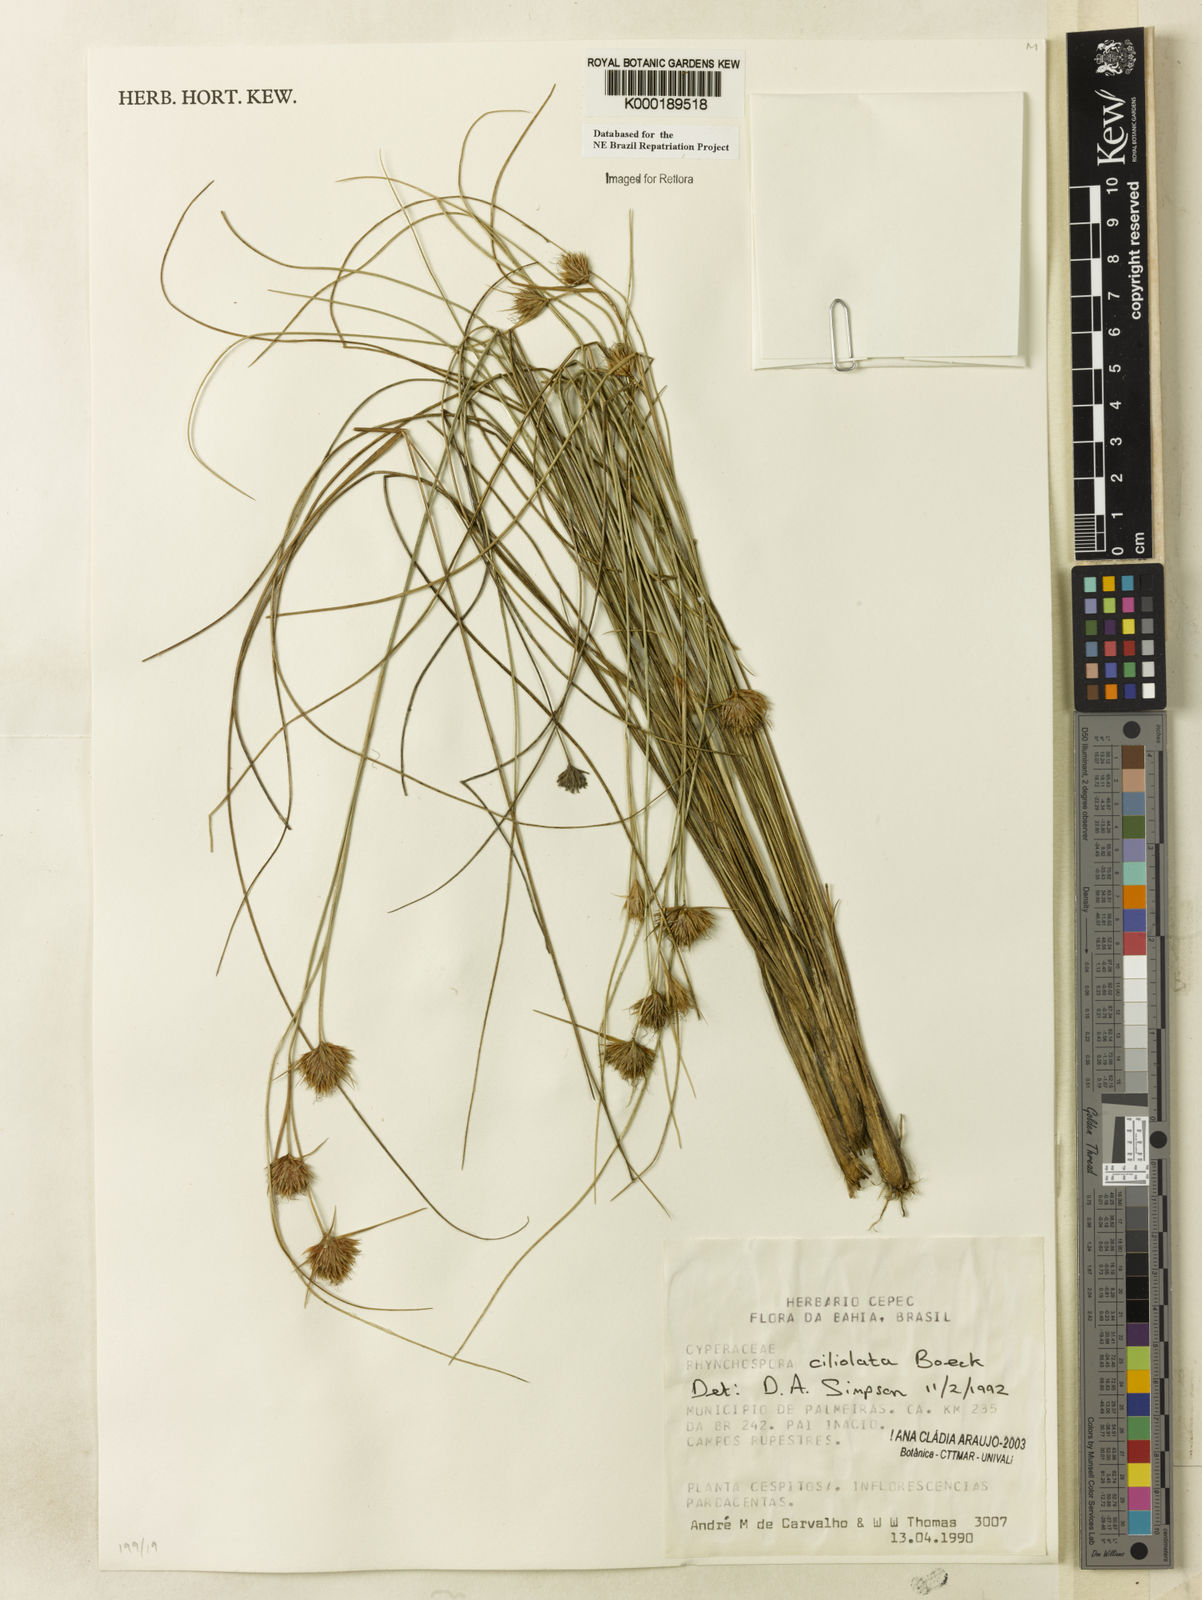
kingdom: Plantae
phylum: Tracheophyta
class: Liliopsida
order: Poales
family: Cyperaceae
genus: Rhynchospora
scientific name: Rhynchospora ciliolata
